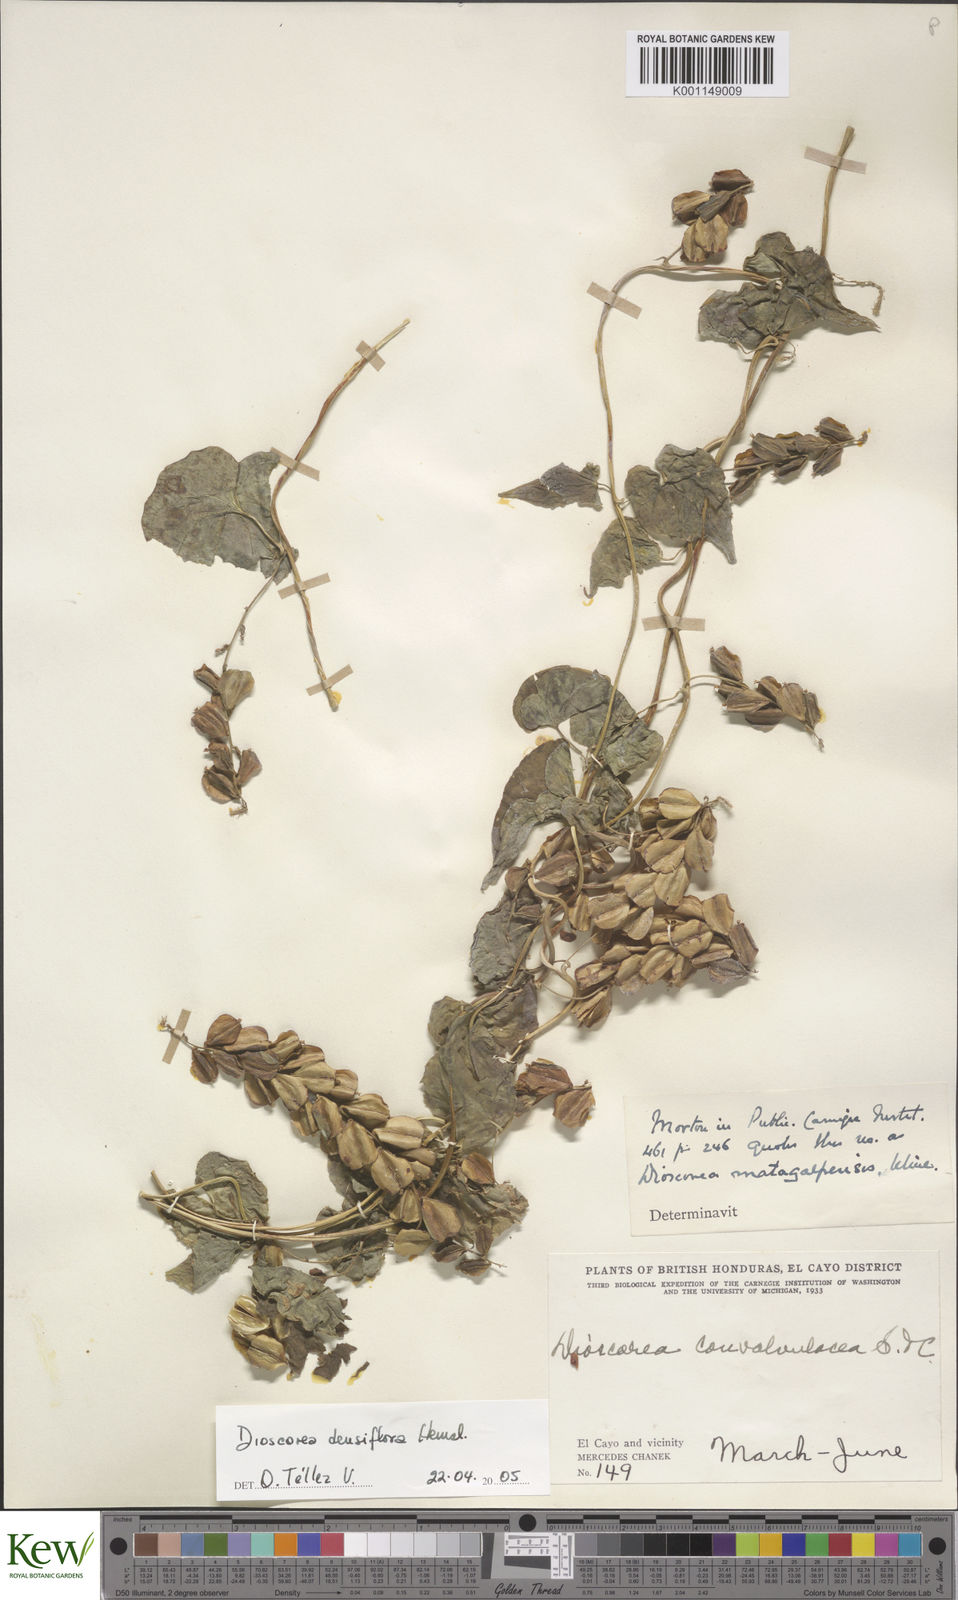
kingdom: Plantae
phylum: Tracheophyta
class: Liliopsida
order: Dioscoreales
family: Dioscoreaceae
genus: Dioscorea
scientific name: Dioscorea densiflora
